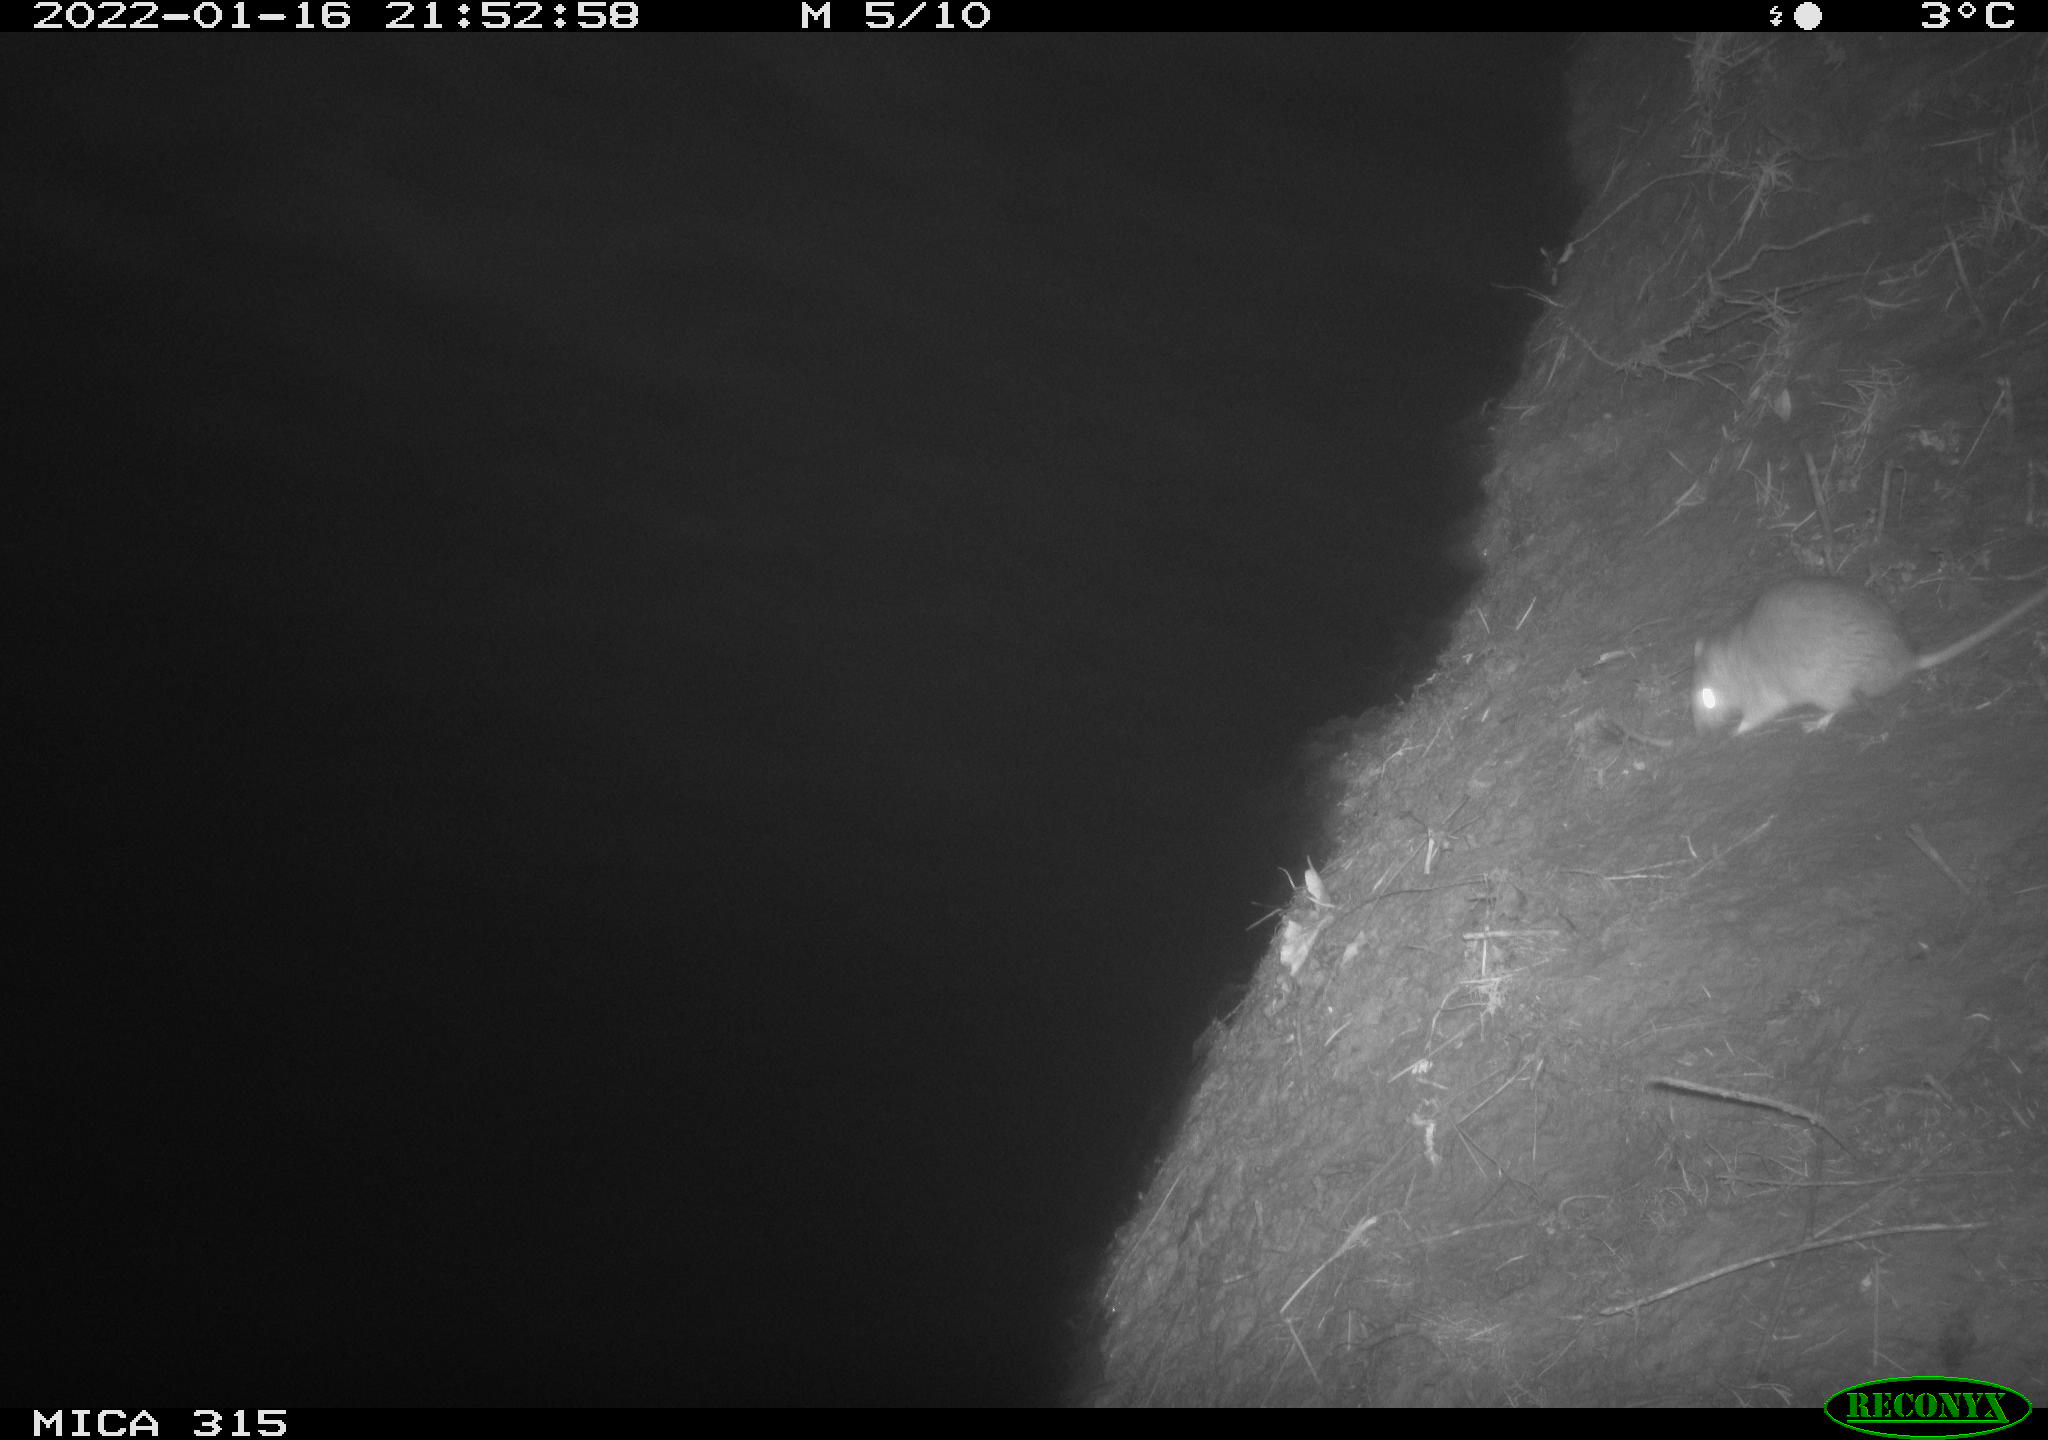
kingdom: Animalia
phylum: Chordata
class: Mammalia
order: Rodentia
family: Muridae
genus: Rattus
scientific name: Rattus norvegicus
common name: Brown rat
